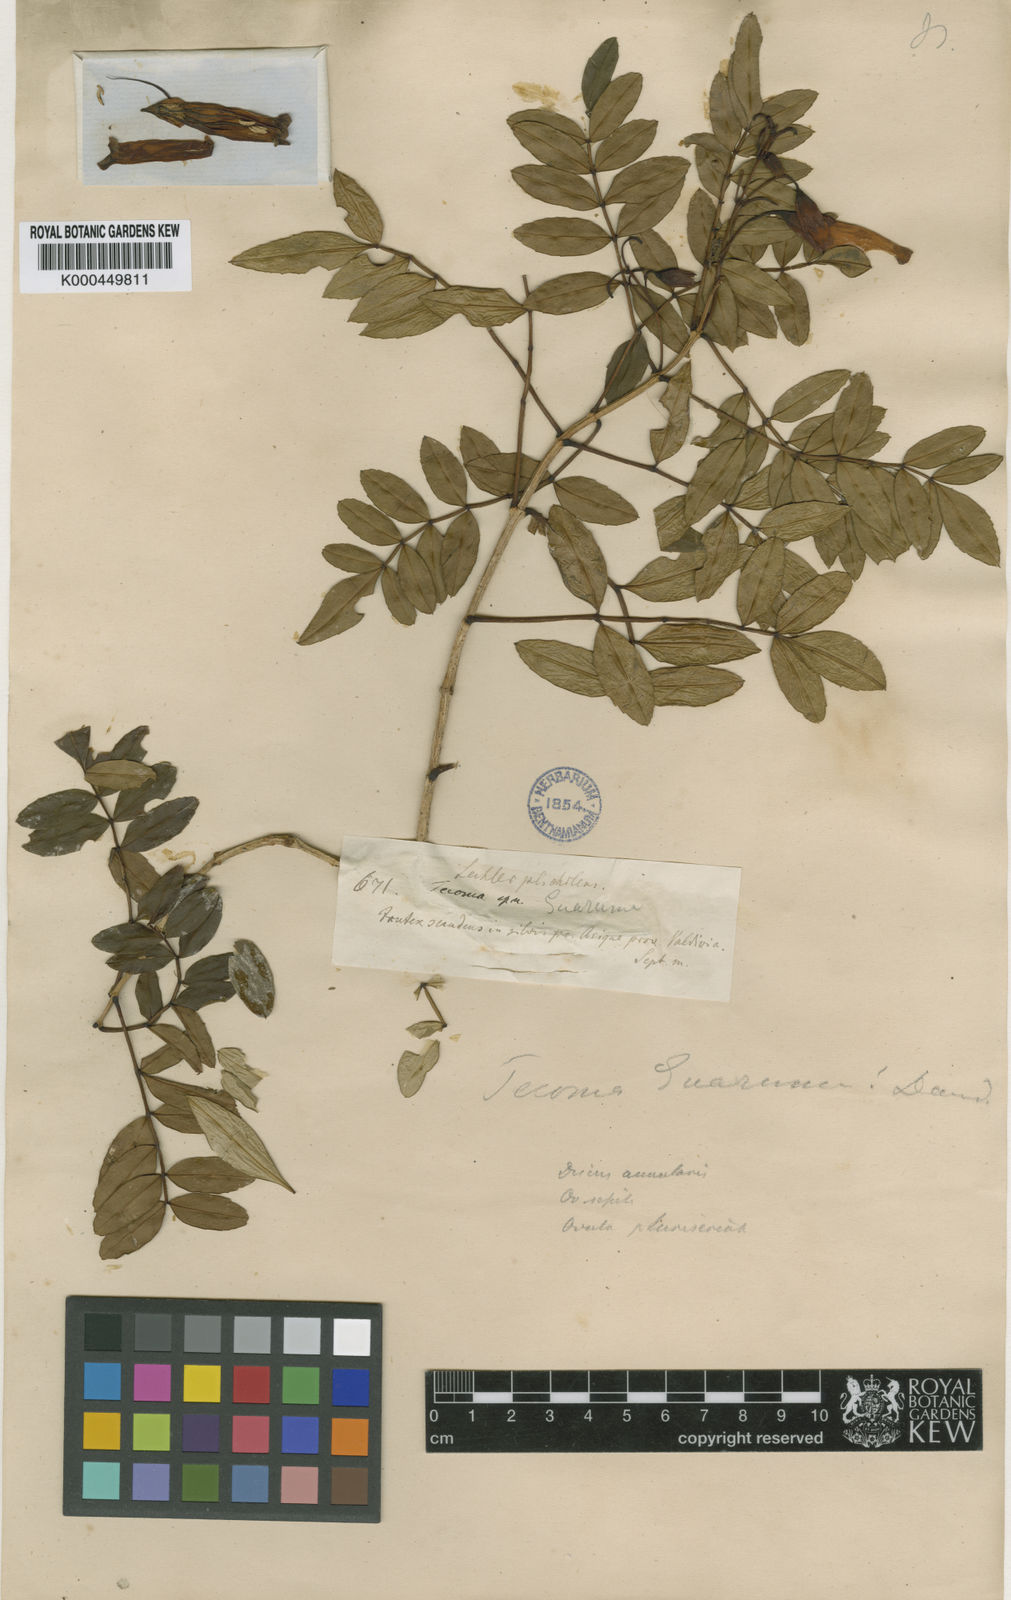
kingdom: Plantae
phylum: Tracheophyta
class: Magnoliopsida
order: Lamiales
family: Bignoniaceae
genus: Campsidium
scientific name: Campsidium valdivianum
